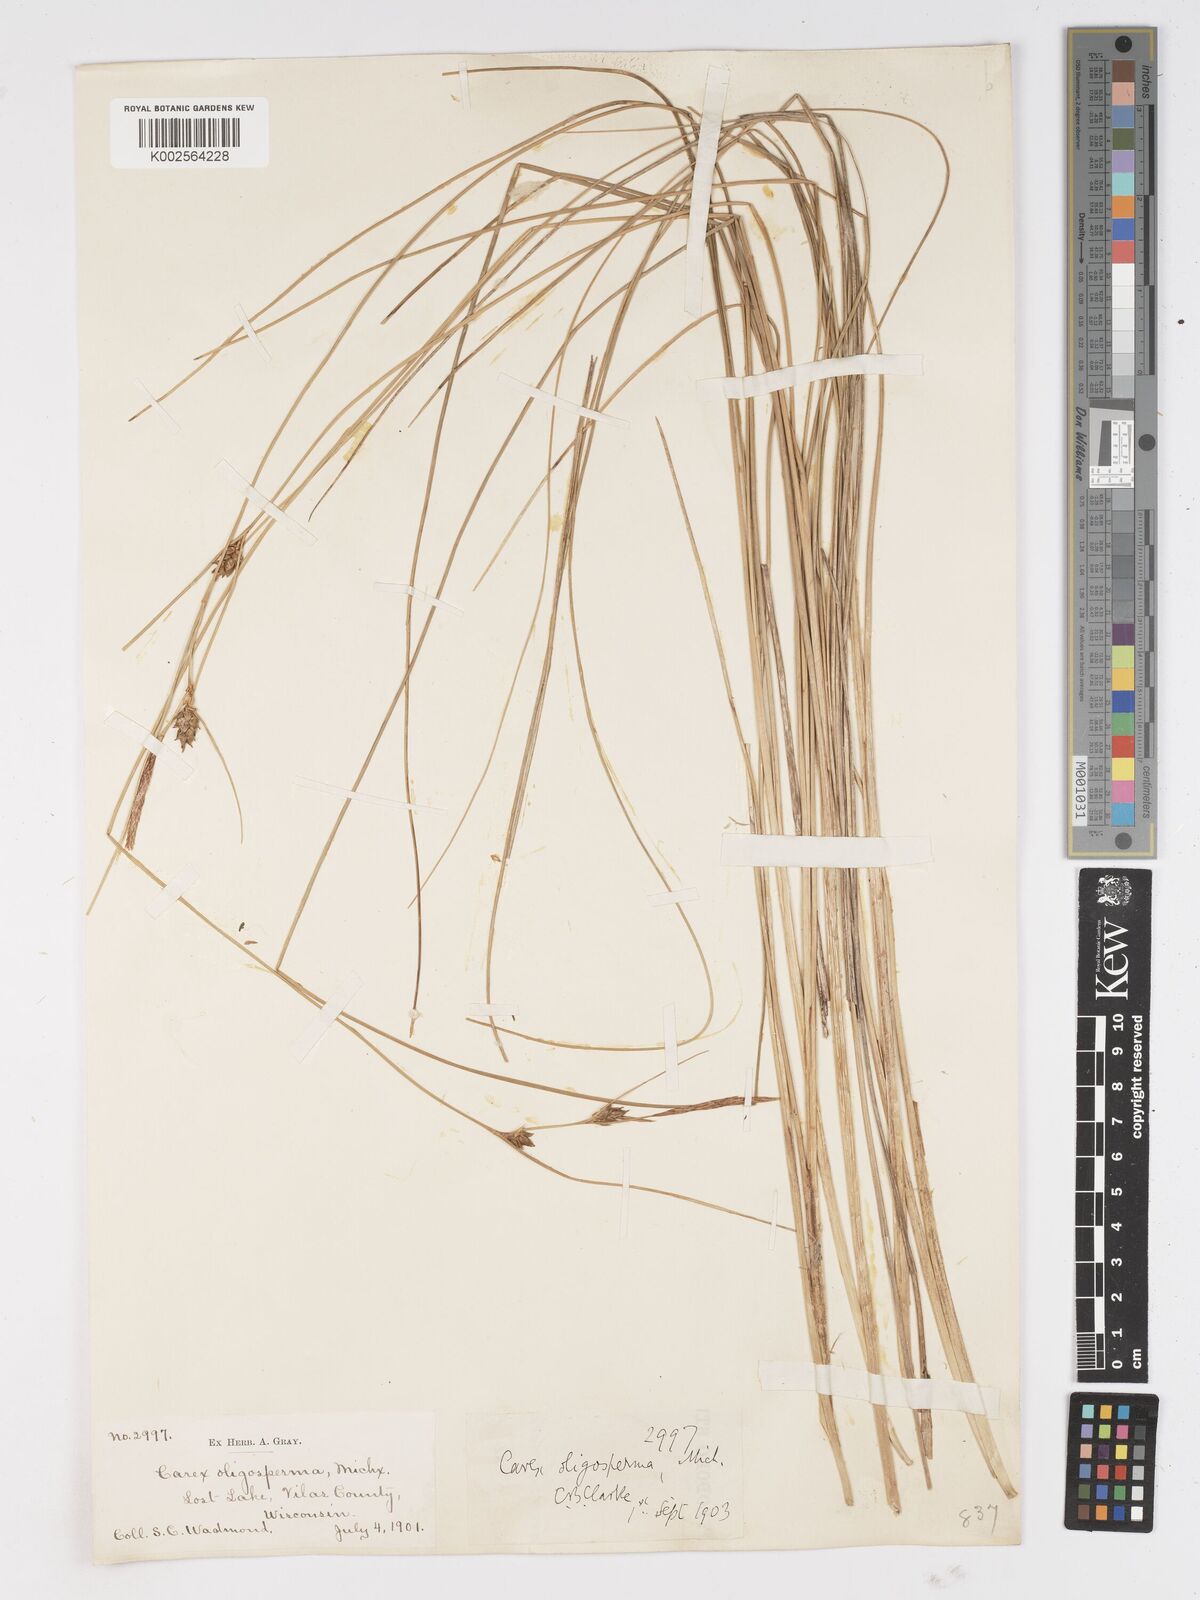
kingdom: Plantae
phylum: Tracheophyta
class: Liliopsida
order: Poales
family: Cyperaceae
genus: Carex
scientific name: Carex oligosperma
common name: Few-seed sedge
